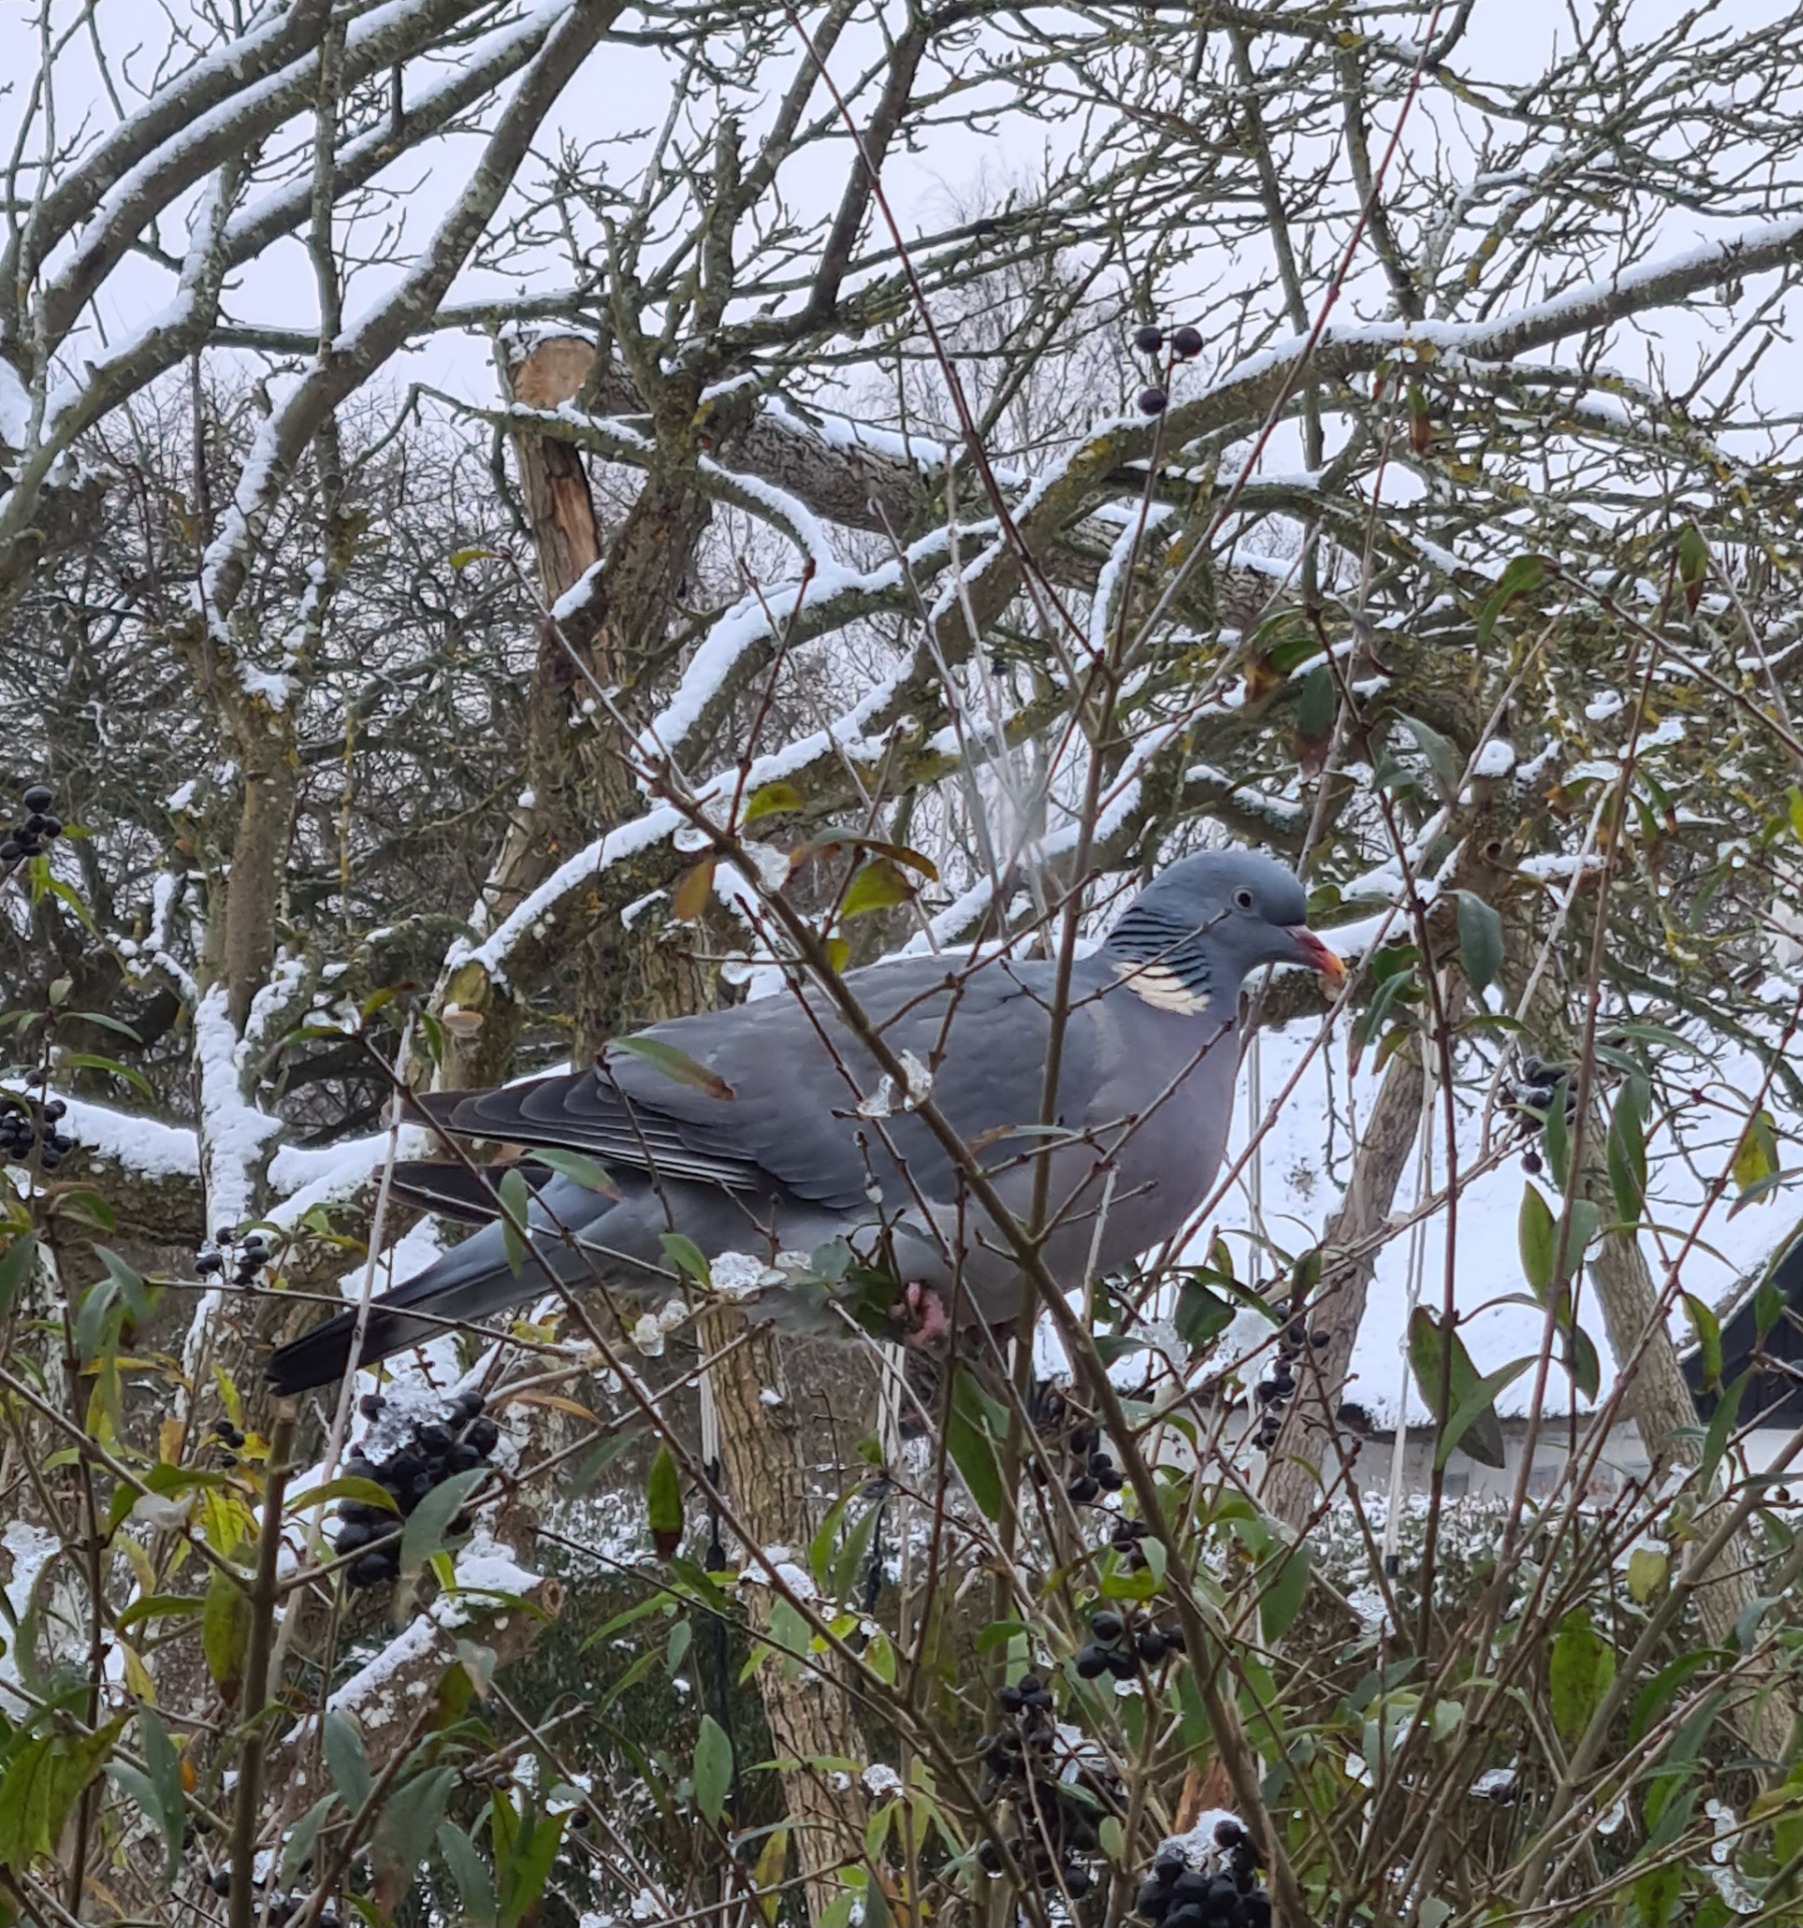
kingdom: Animalia
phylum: Chordata
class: Aves
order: Columbiformes
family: Columbidae
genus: Columba
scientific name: Columba palumbus
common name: Ringdue
